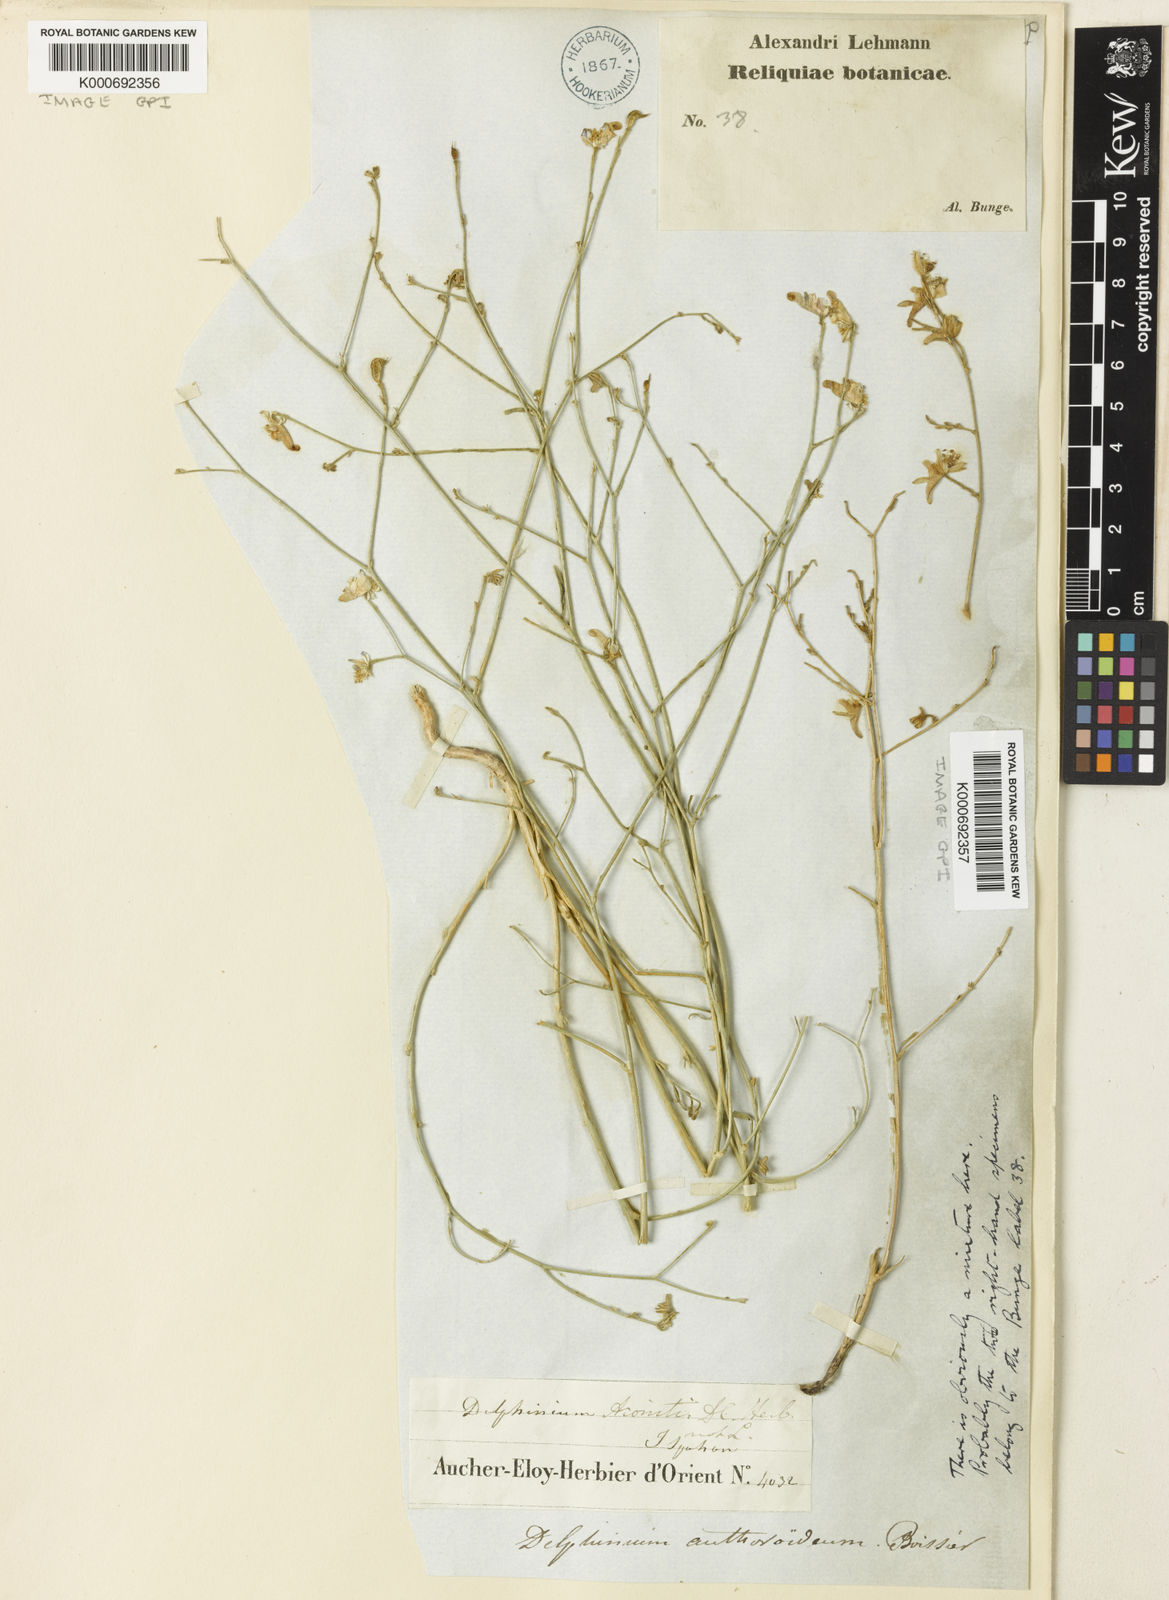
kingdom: Plantae
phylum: Tracheophyta
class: Magnoliopsida
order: Ranunculales
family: Ranunculaceae
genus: Delphinium
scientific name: Delphinium
